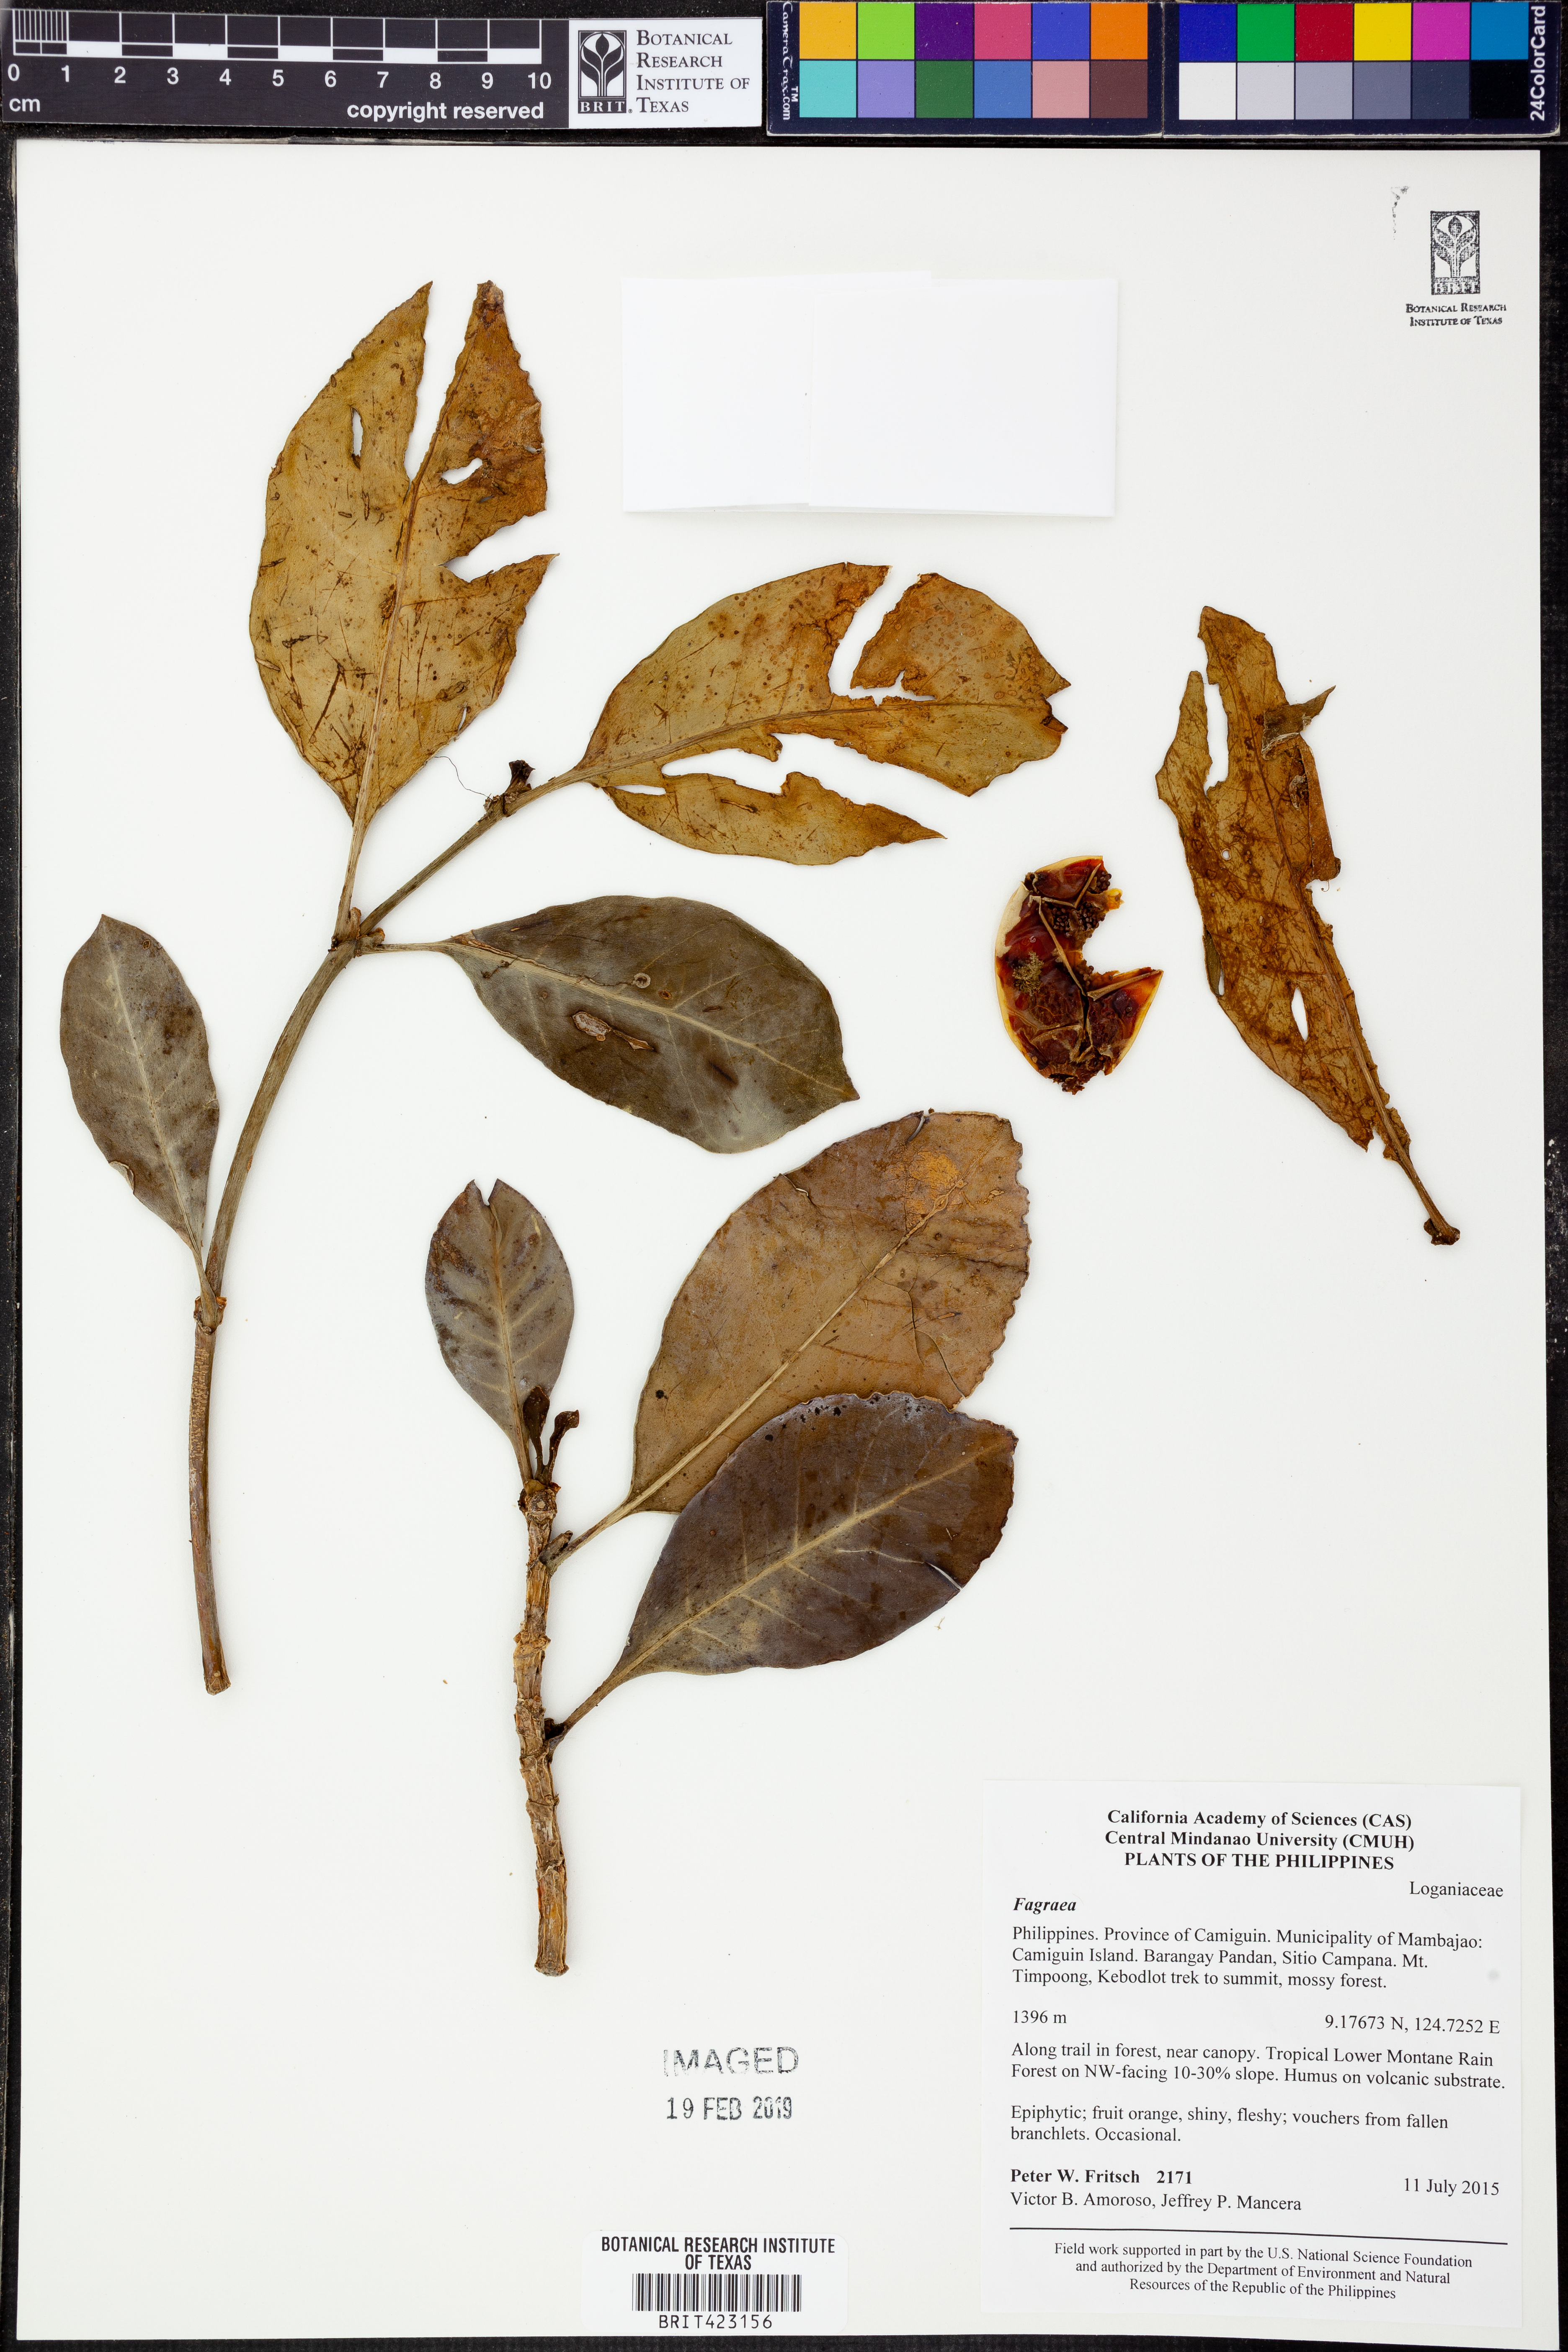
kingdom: Plantae
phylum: Tracheophyta
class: Magnoliopsida
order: Gentianales
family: Gentianaceae
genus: Fagraea
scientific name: Fagraea
